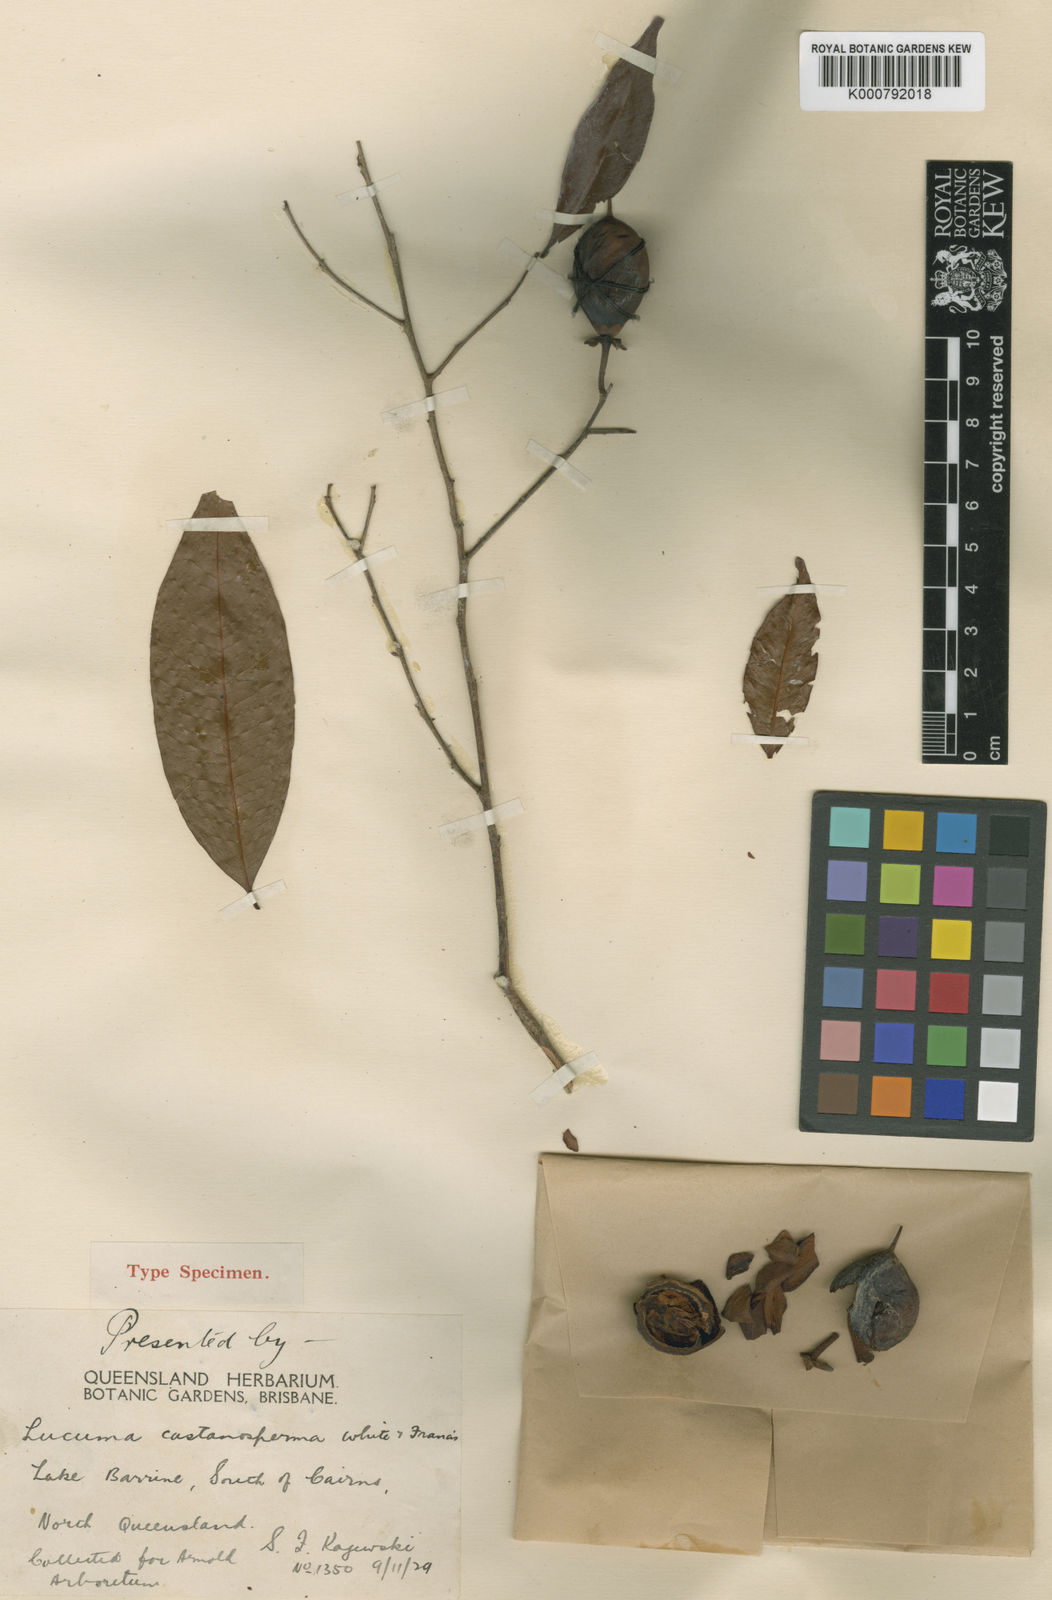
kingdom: Plantae
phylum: Tracheophyta
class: Magnoliopsida
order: Ericales
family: Sapotaceae
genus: Van-royena
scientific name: Van-royena castanosperma
